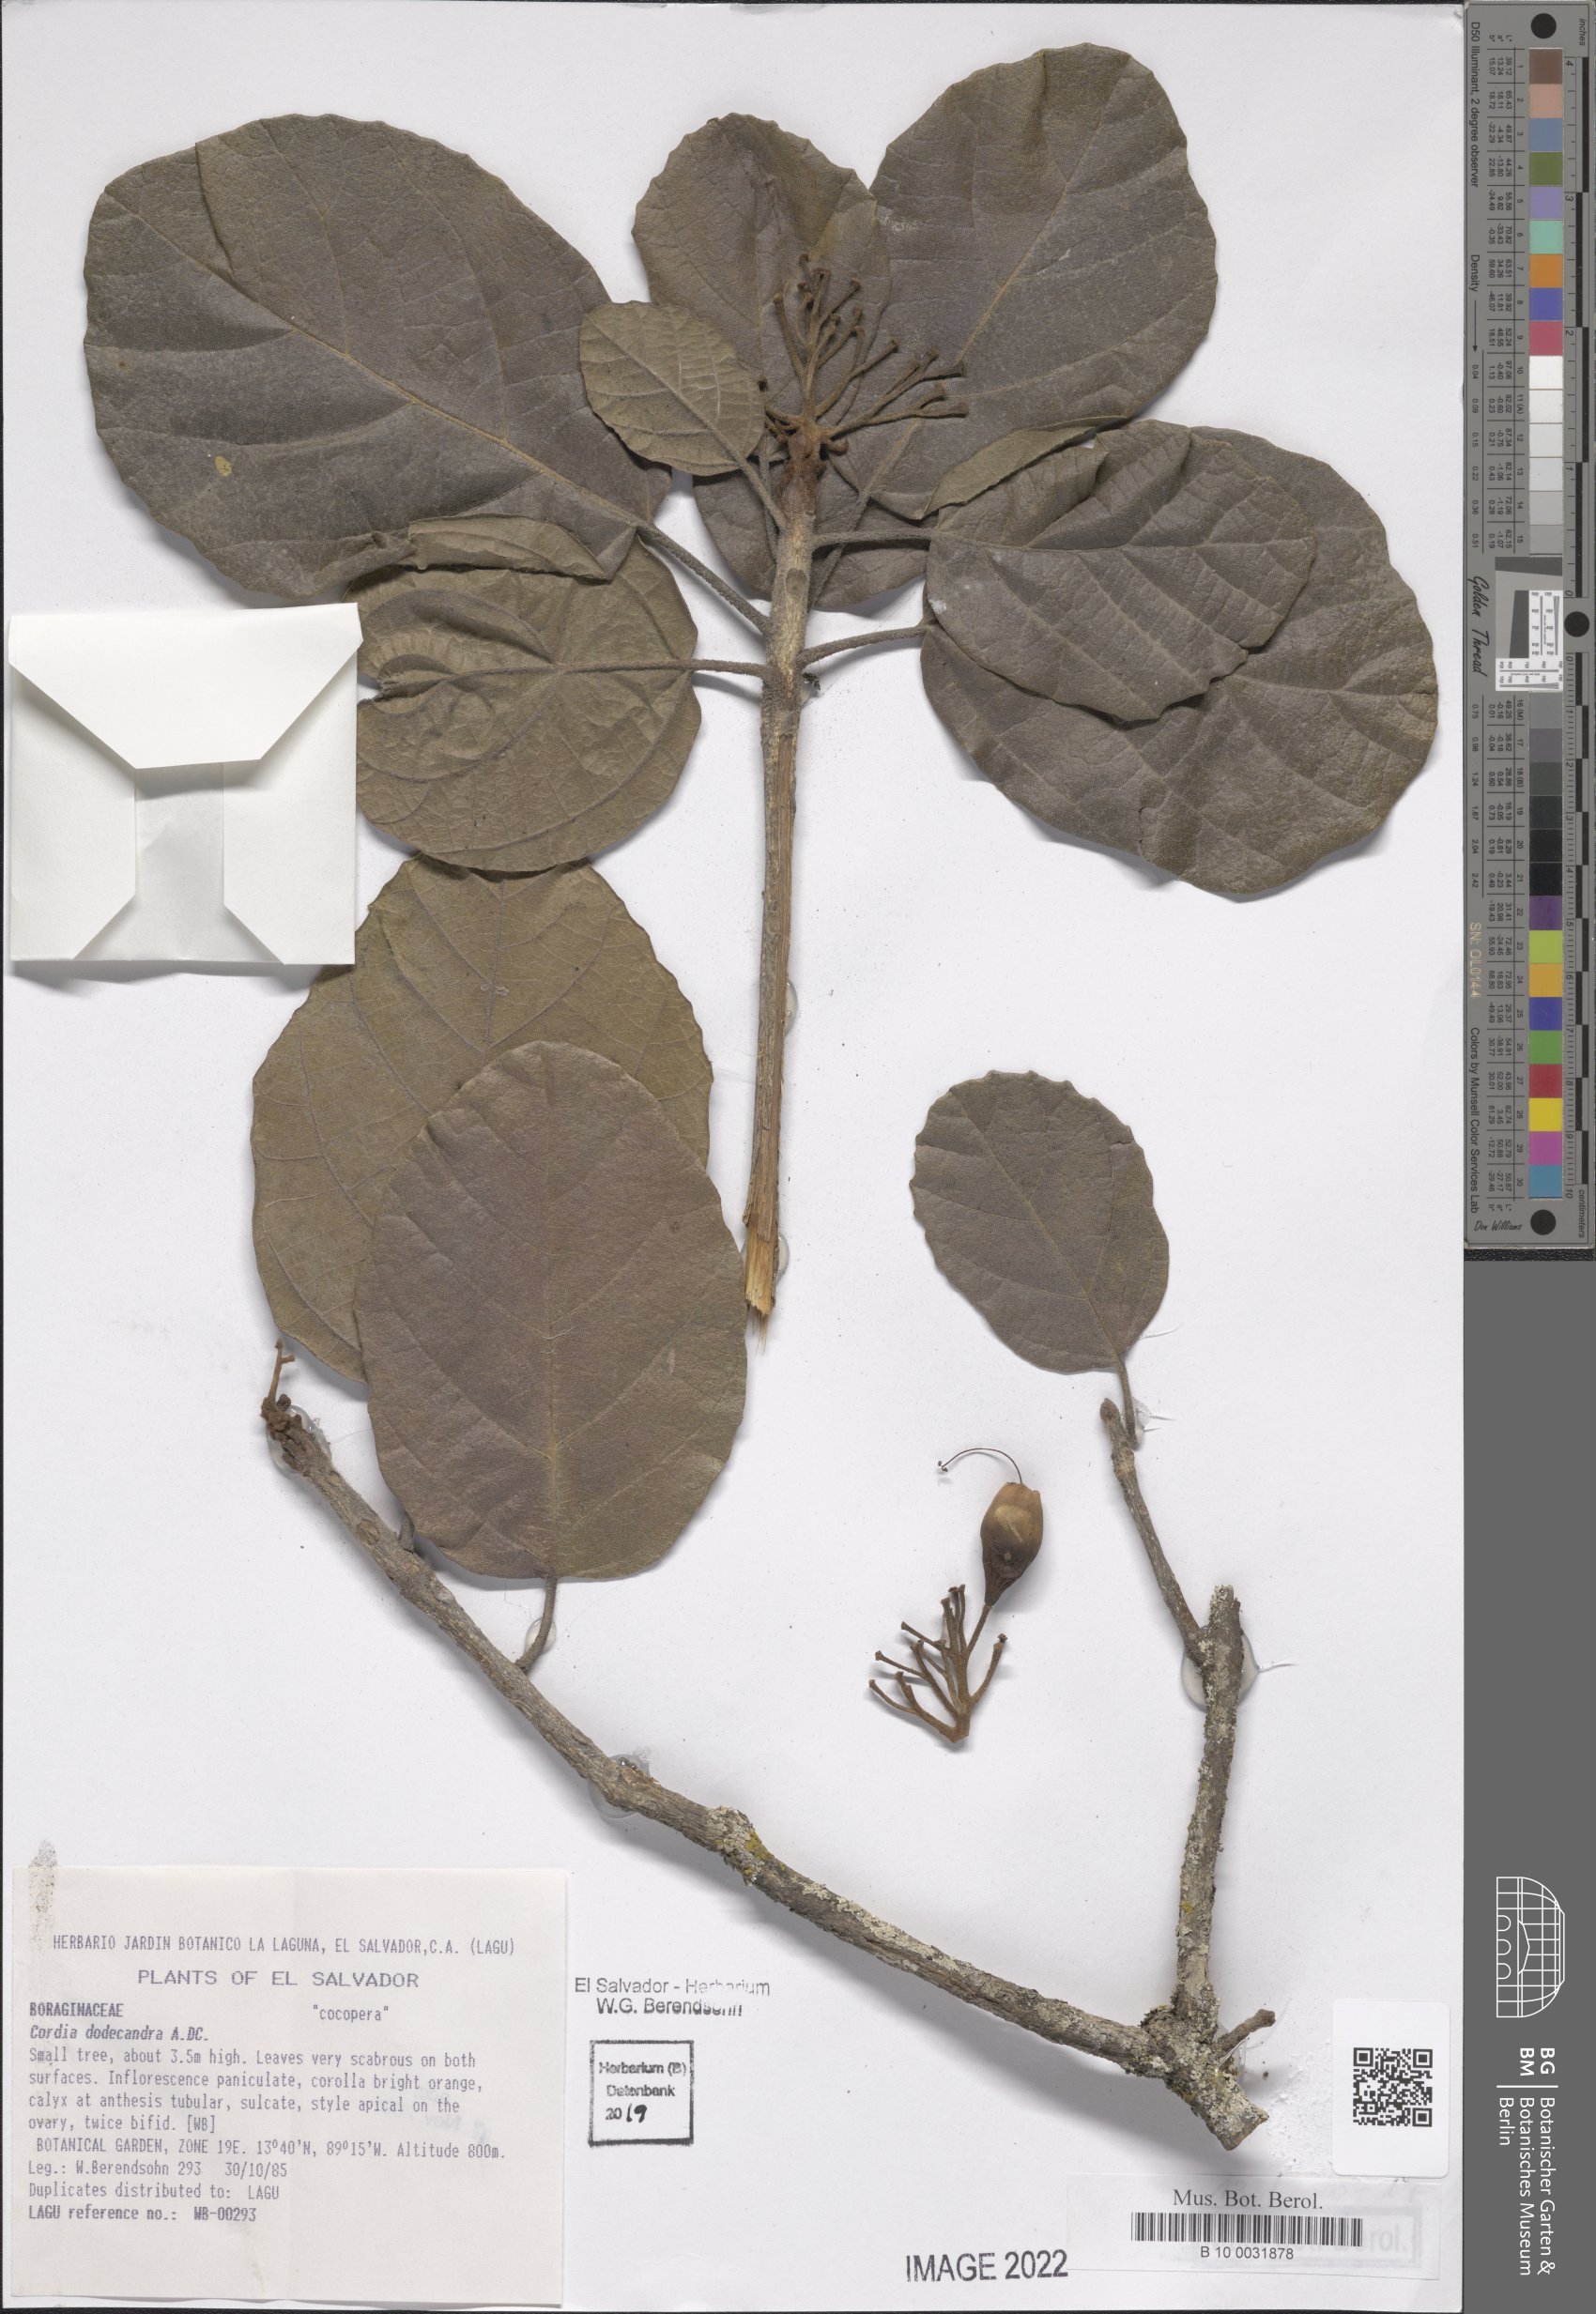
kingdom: Plantae
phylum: Tracheophyta
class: Magnoliopsida
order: Boraginales
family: Cordiaceae
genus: Cordia
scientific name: Cordia dodecandra
